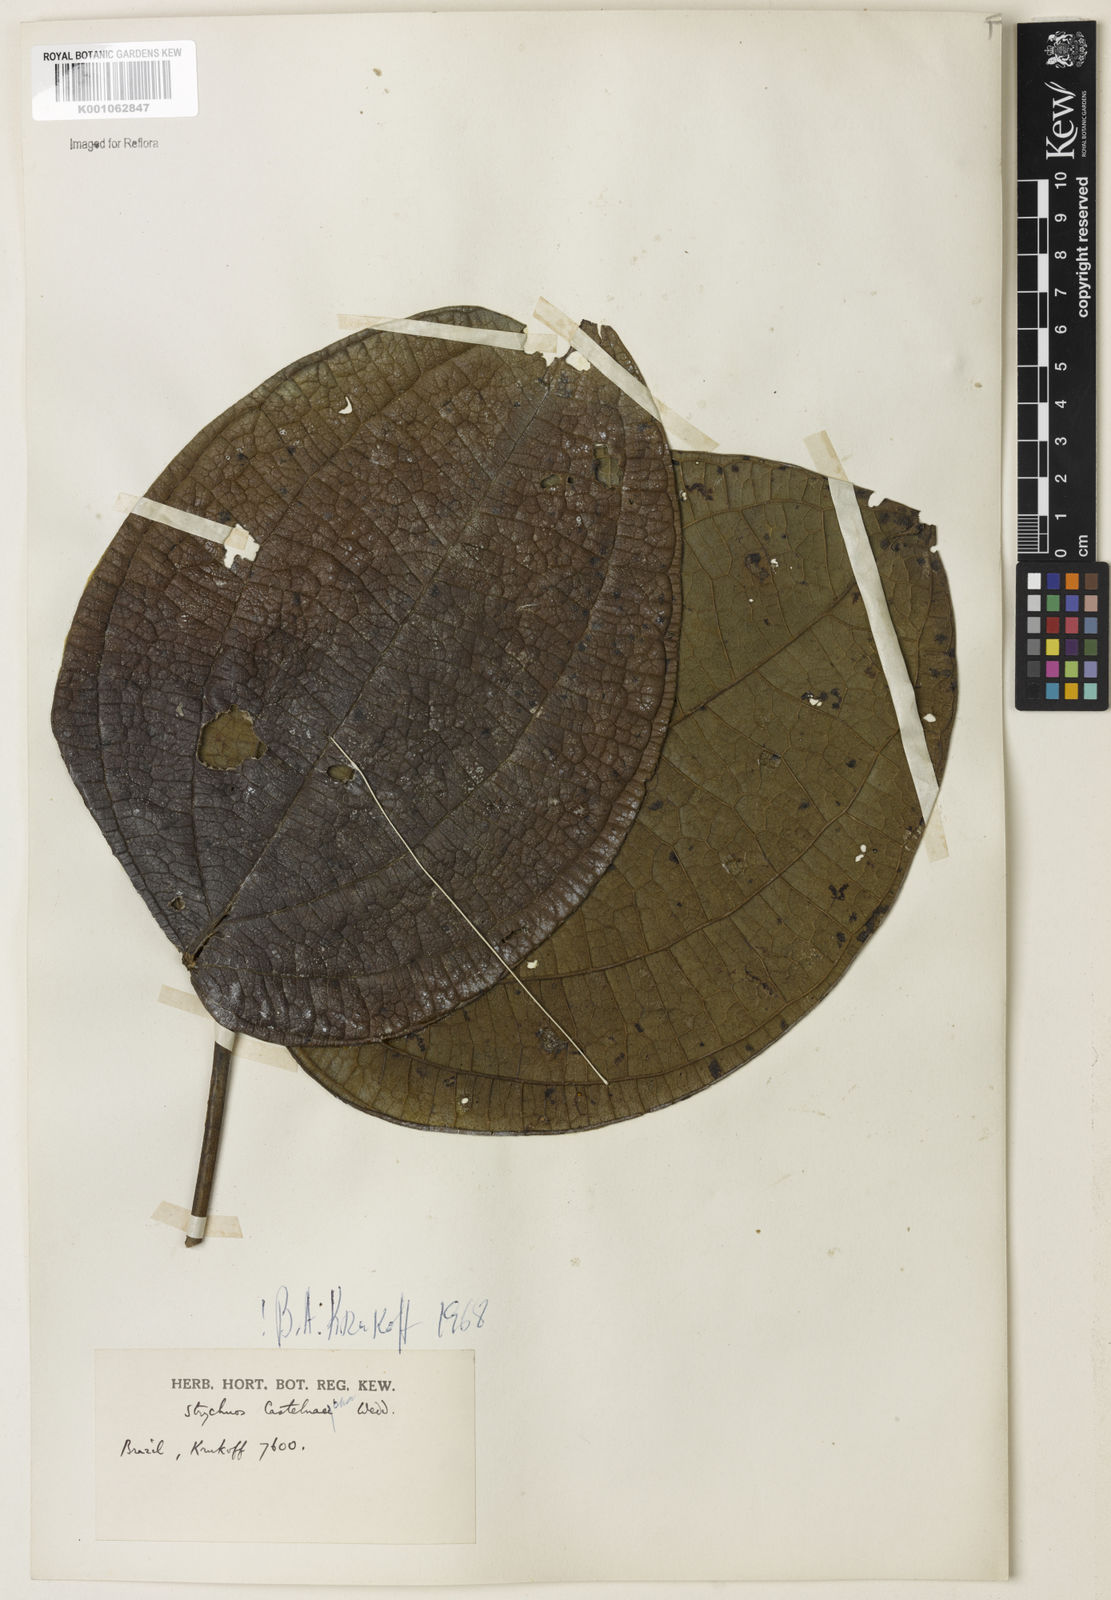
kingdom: Plantae
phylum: Tracheophyta
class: Magnoliopsida
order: Gentianales
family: Loganiaceae
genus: Strychnos
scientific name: Strychnos
